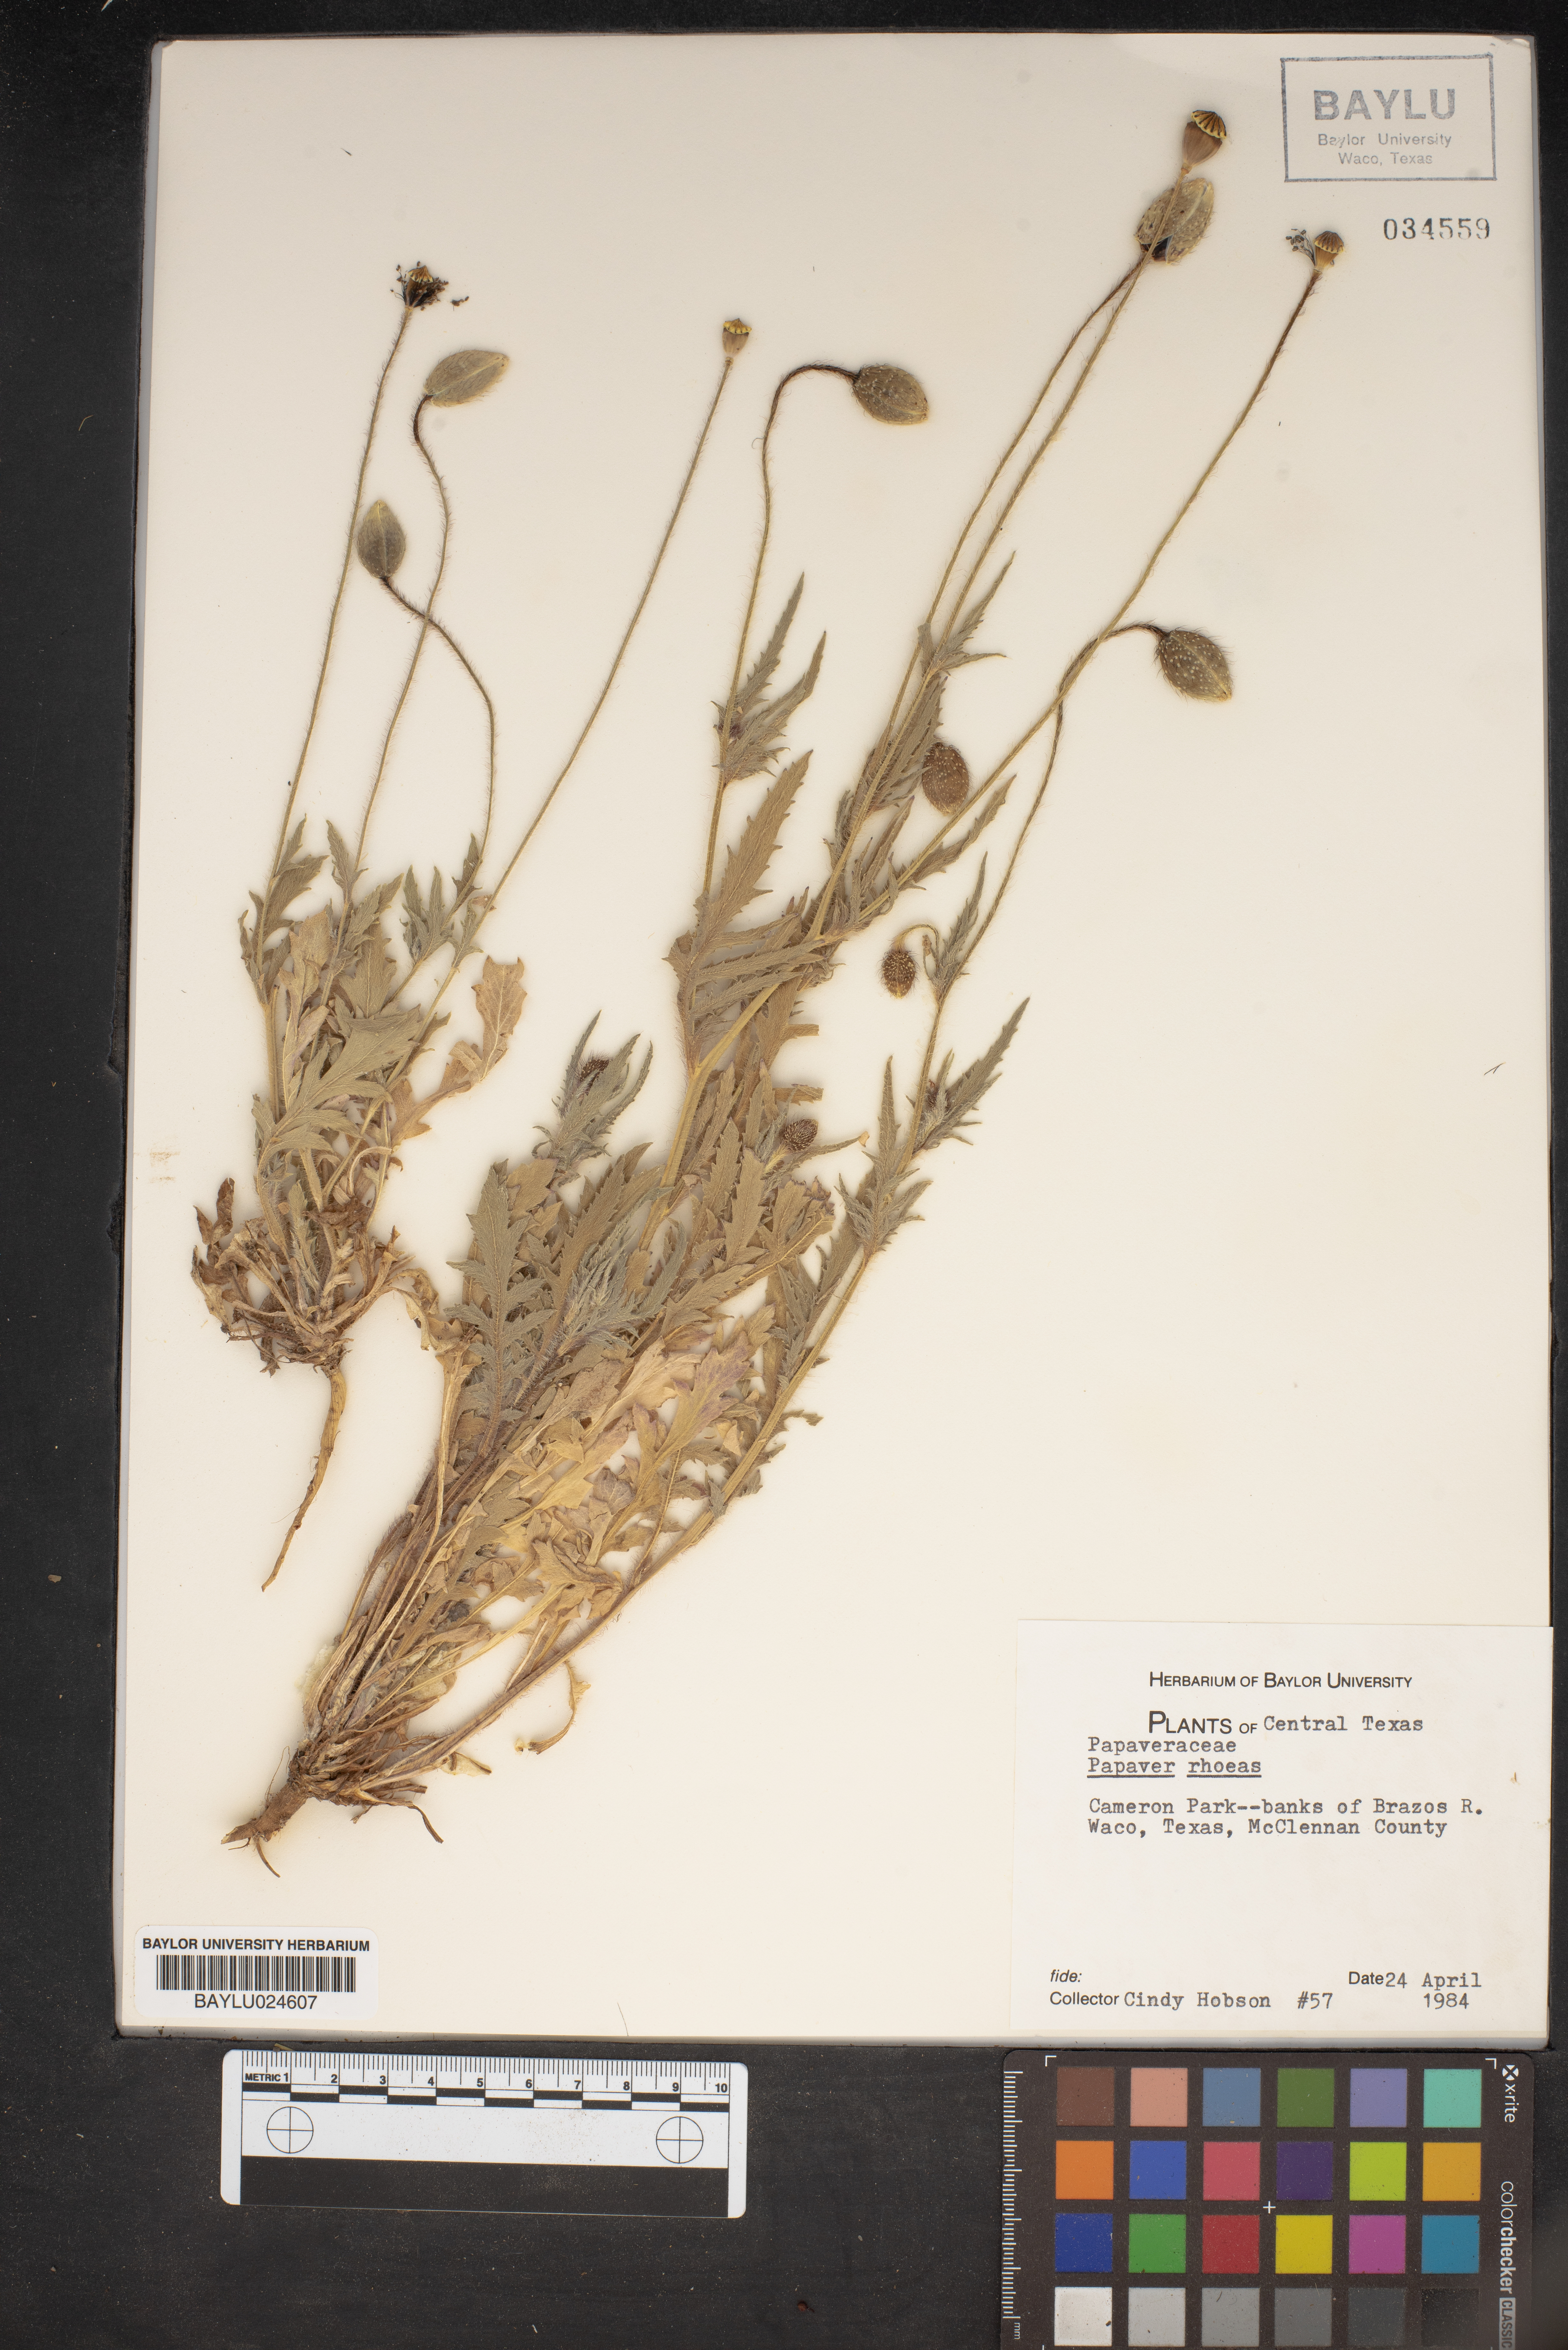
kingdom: Plantae
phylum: Tracheophyta
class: Magnoliopsida
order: Ranunculales
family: Papaveraceae
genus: Papaver
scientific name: Papaver rhoeas
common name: Corn poppy
